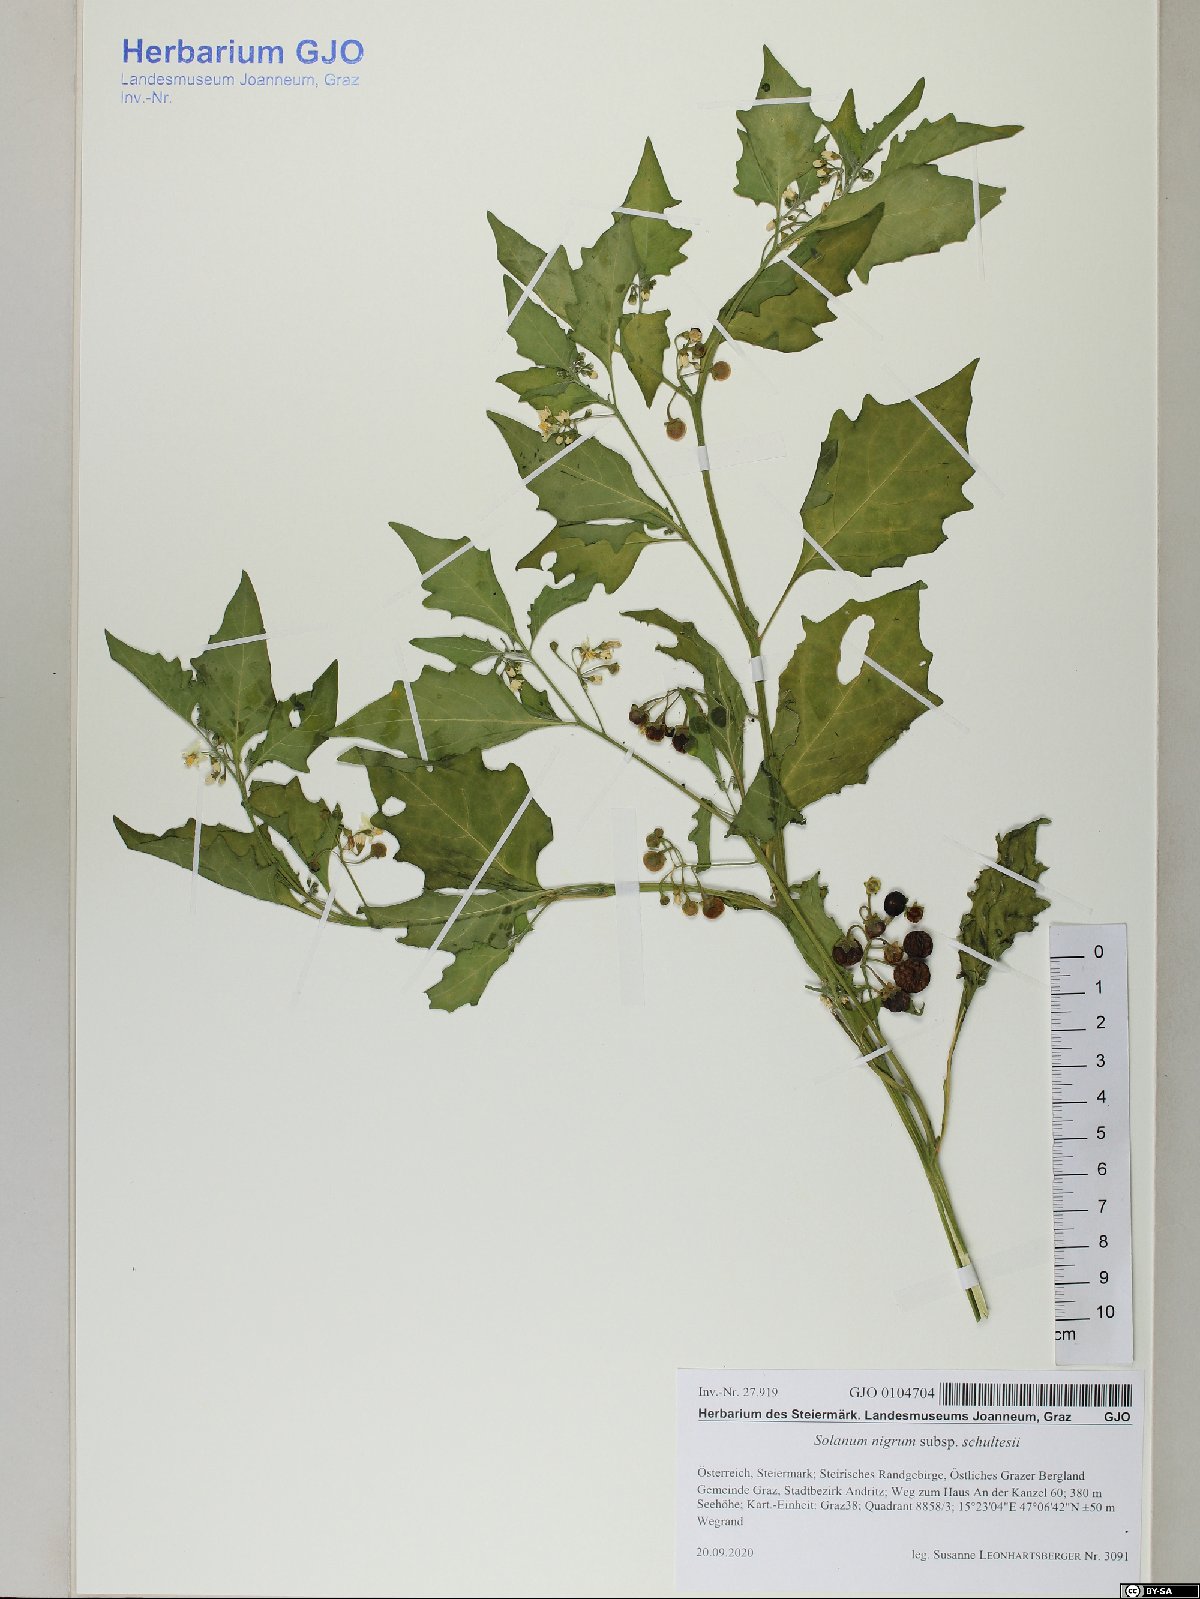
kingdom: Plantae
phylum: Tracheophyta
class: Magnoliopsida
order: Solanales
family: Solanaceae
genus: Solanum
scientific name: Solanum decipiens
